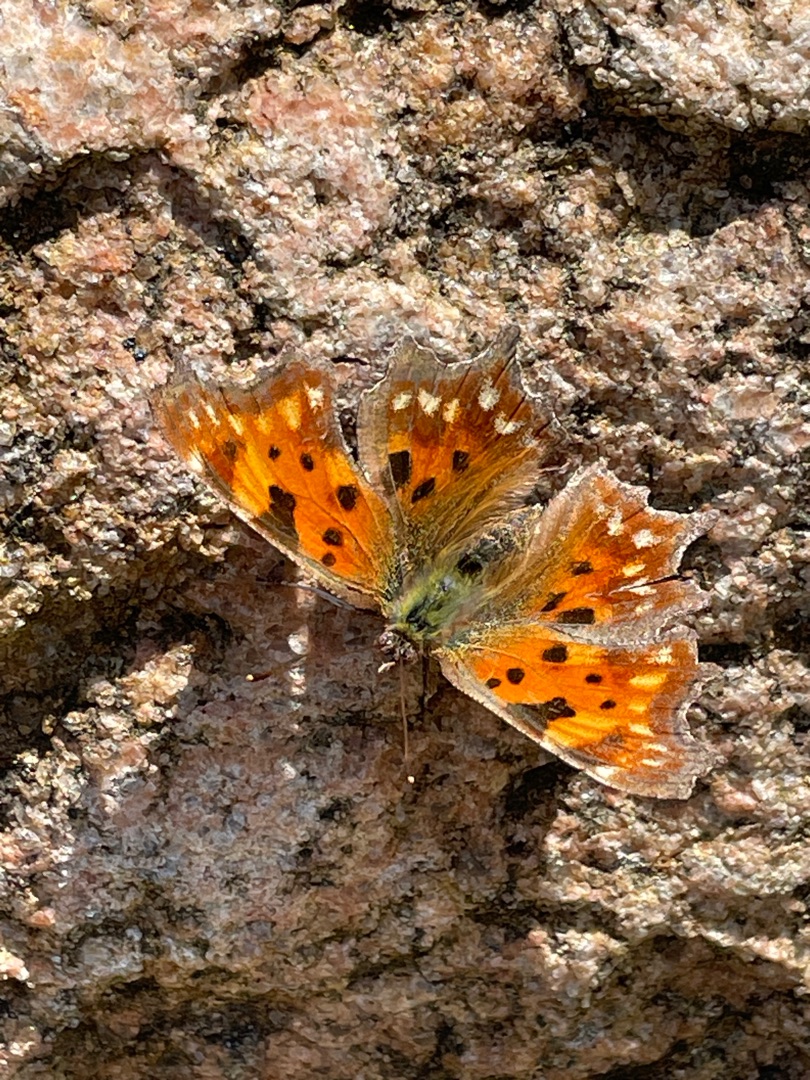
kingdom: Animalia
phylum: Arthropoda
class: Insecta
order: Lepidoptera
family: Nymphalidae
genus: Polygonia
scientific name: Polygonia c-album
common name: Det hvide C
